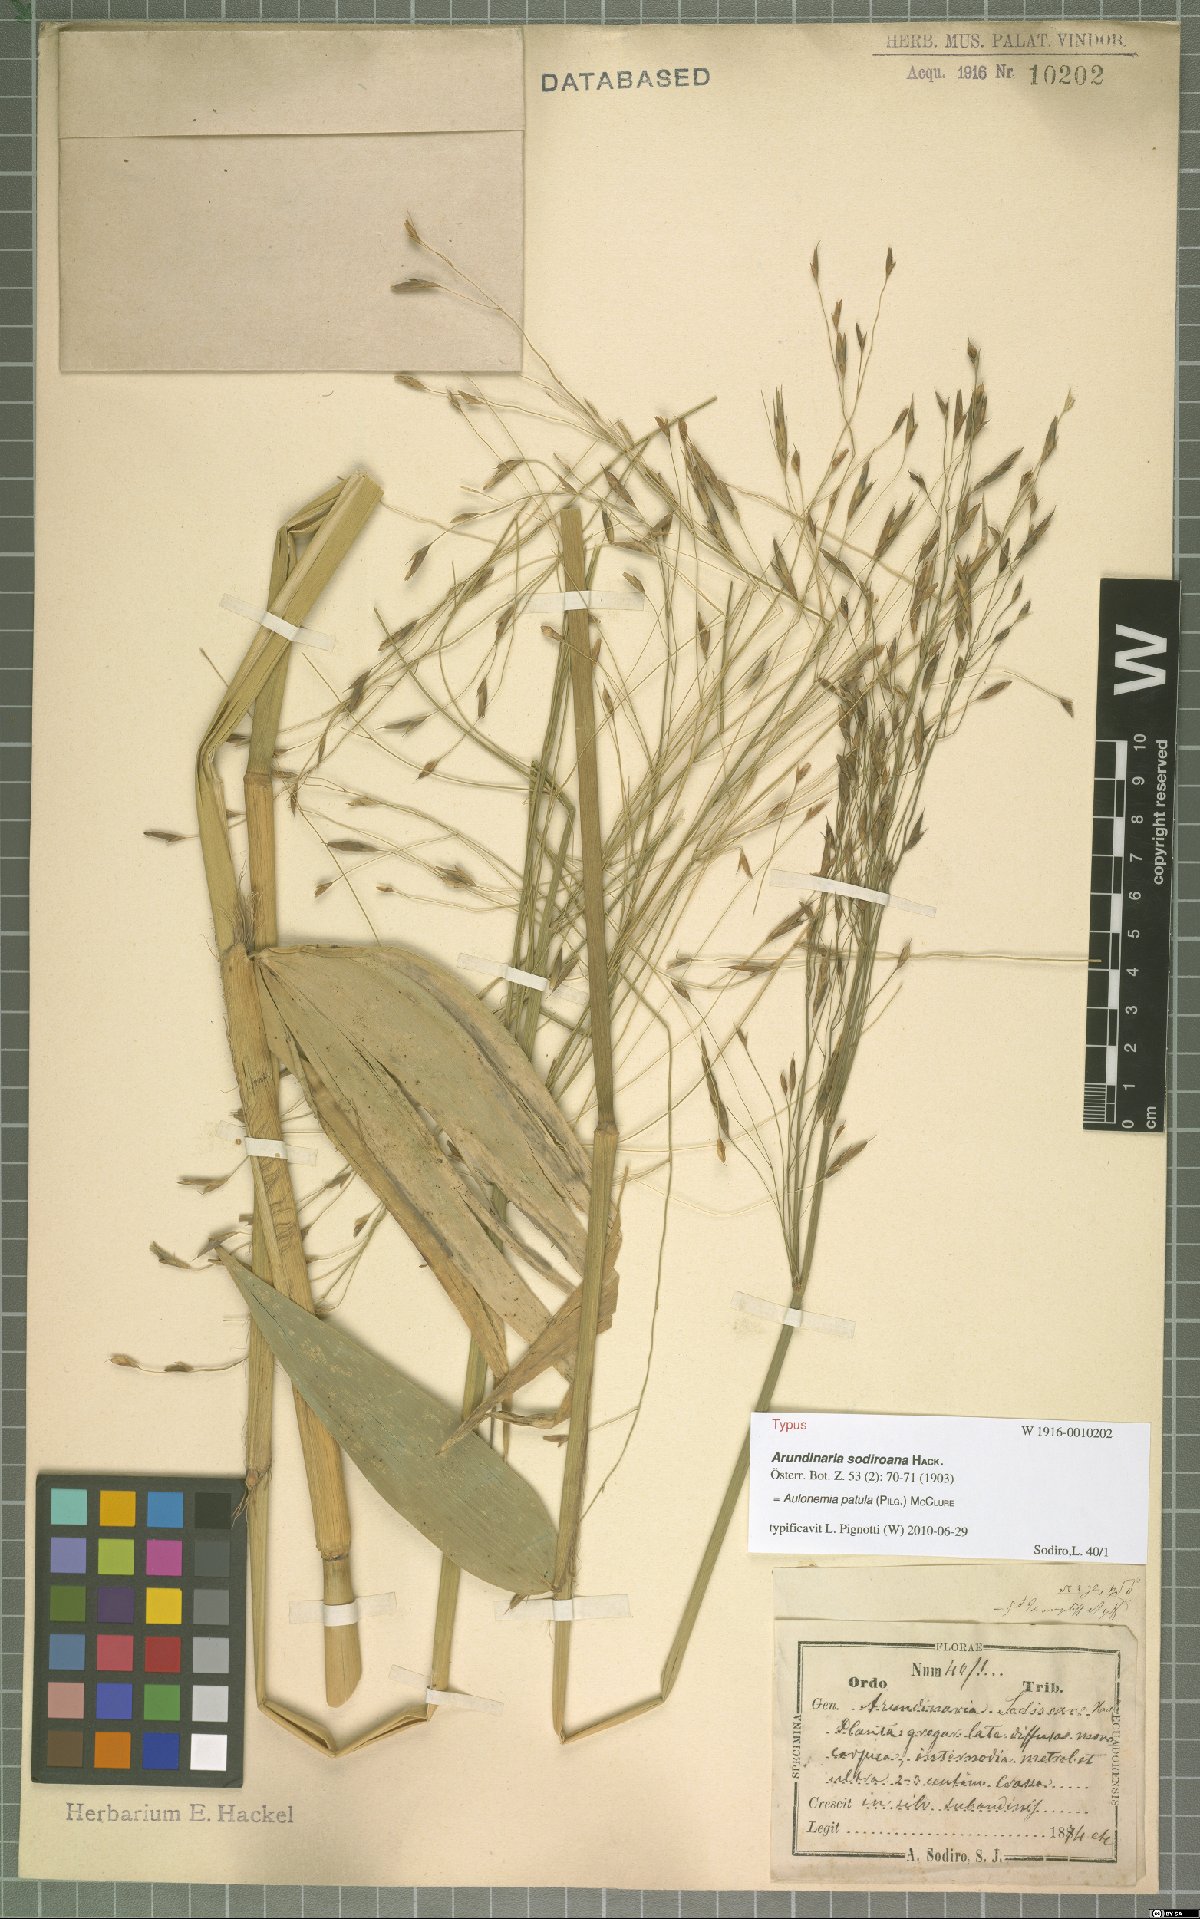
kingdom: Plantae
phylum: Tracheophyta
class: Liliopsida
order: Poales
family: Poaceae
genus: Aulonemia
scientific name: Aulonemia patula
